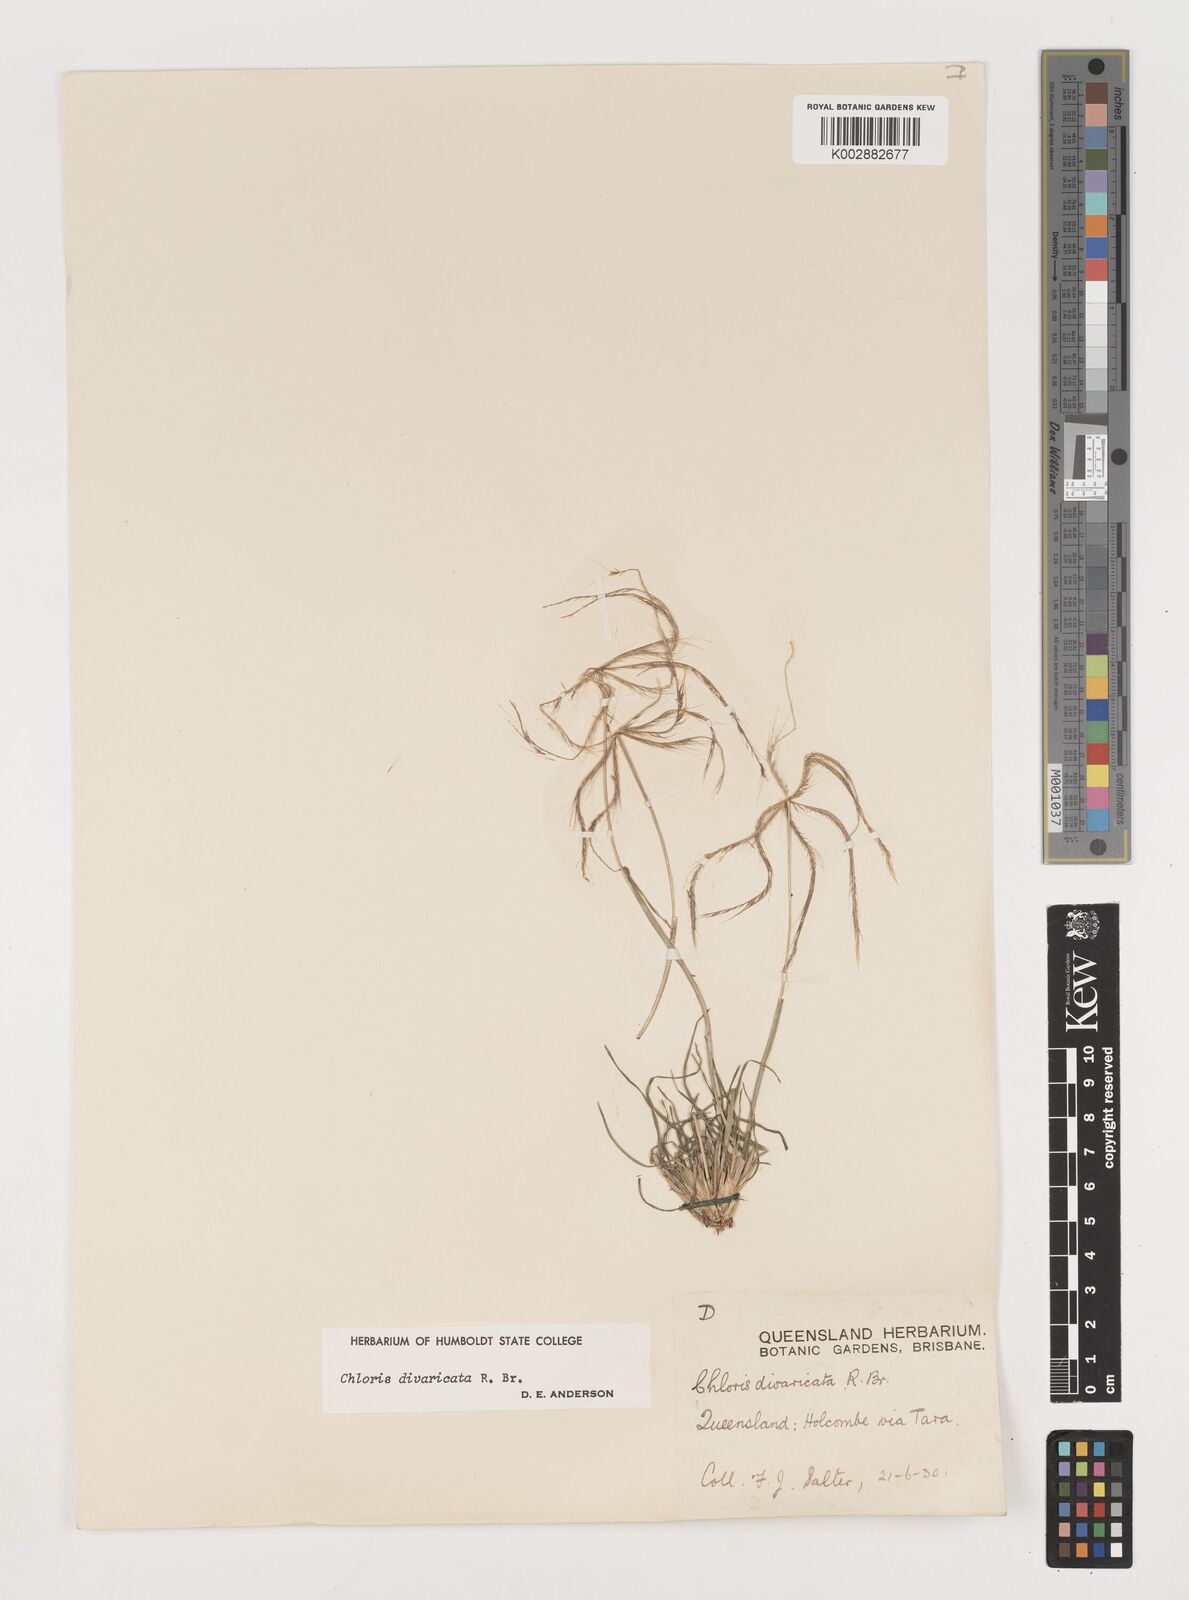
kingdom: Plantae
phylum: Tracheophyta
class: Liliopsida
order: Poales
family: Poaceae
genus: Chloris
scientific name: Chloris divaricata
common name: Spreading windmill grass
